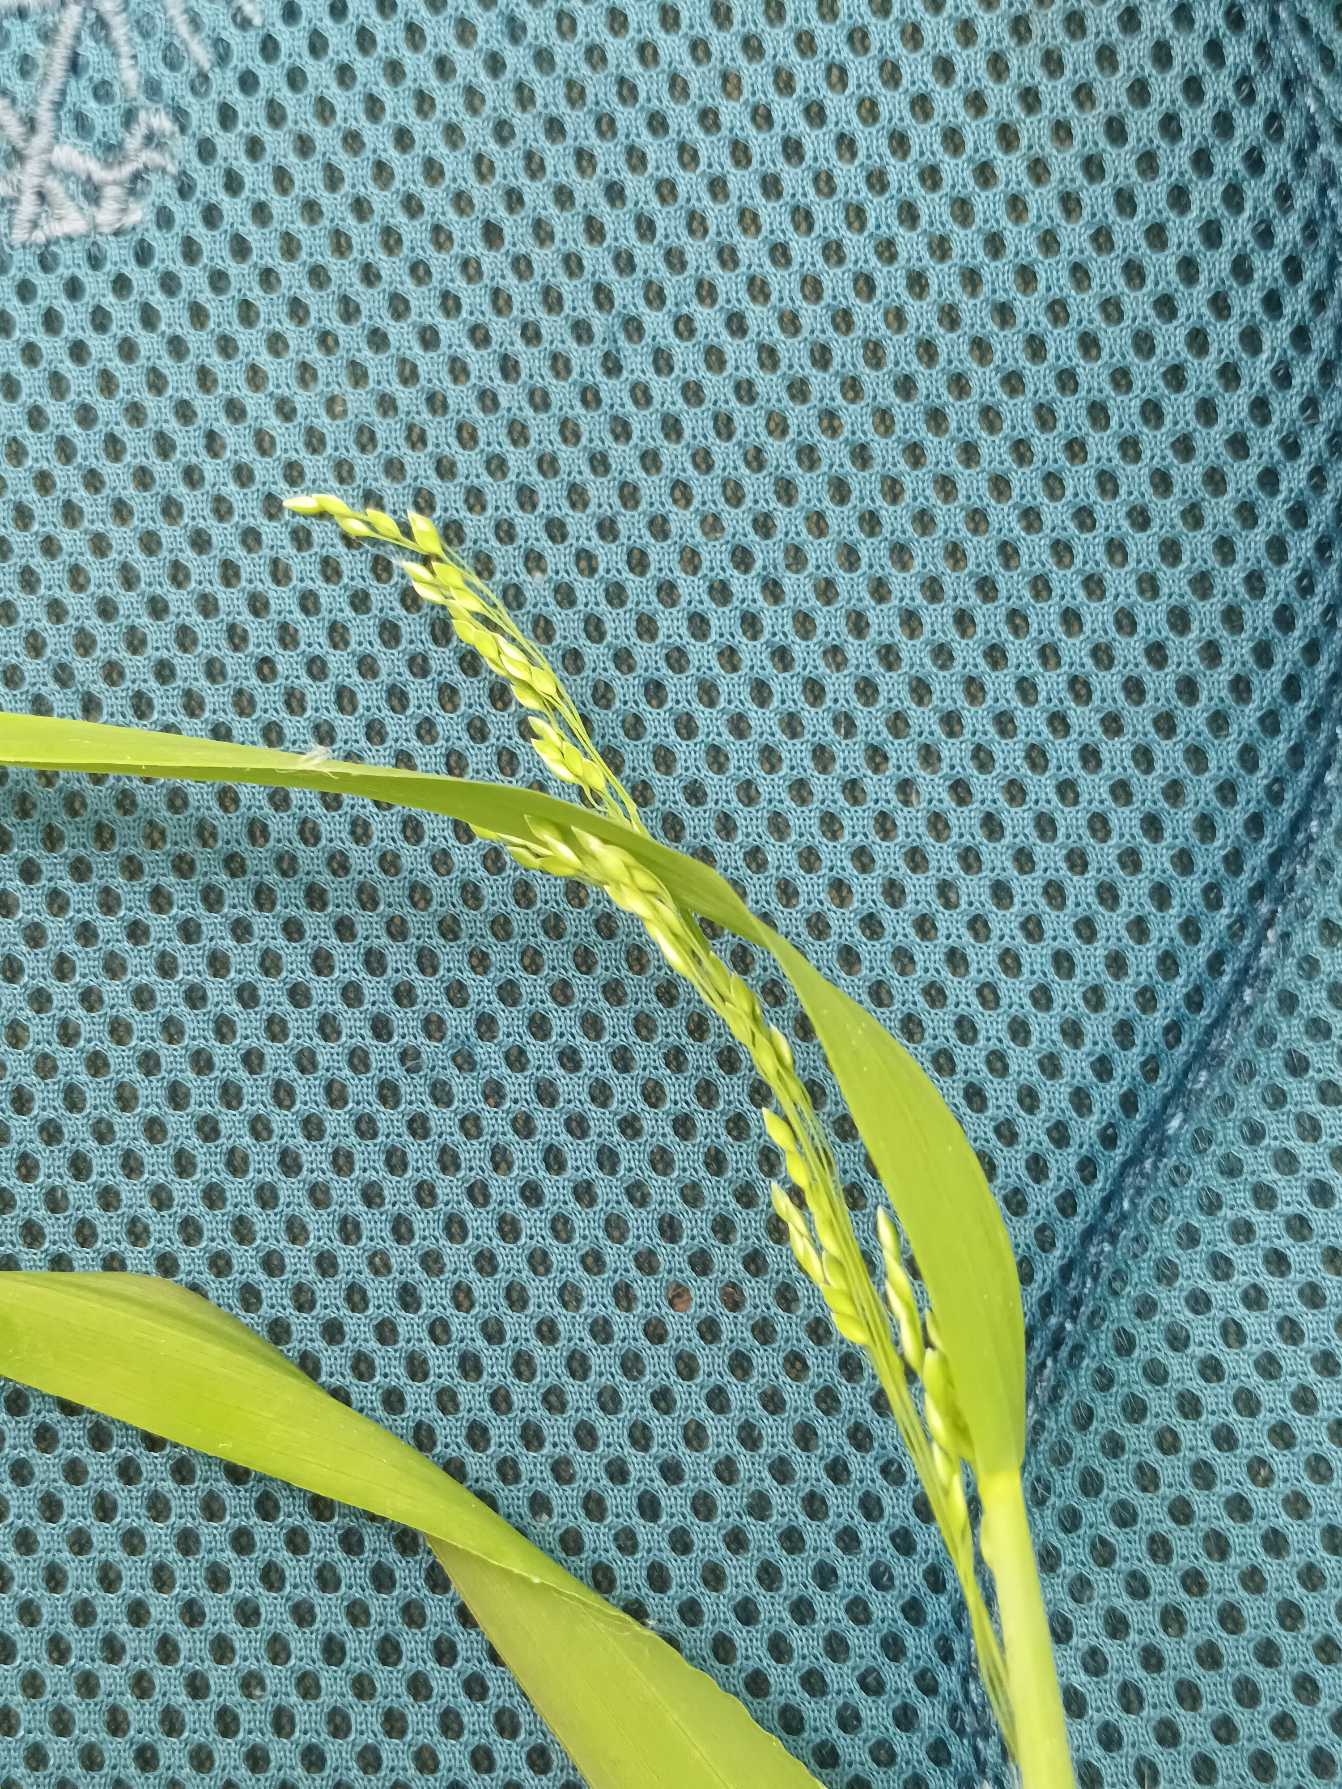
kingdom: Plantae
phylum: Tracheophyta
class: Liliopsida
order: Poales
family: Poaceae
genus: Milium
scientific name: Milium effusum
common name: Miliegræs
